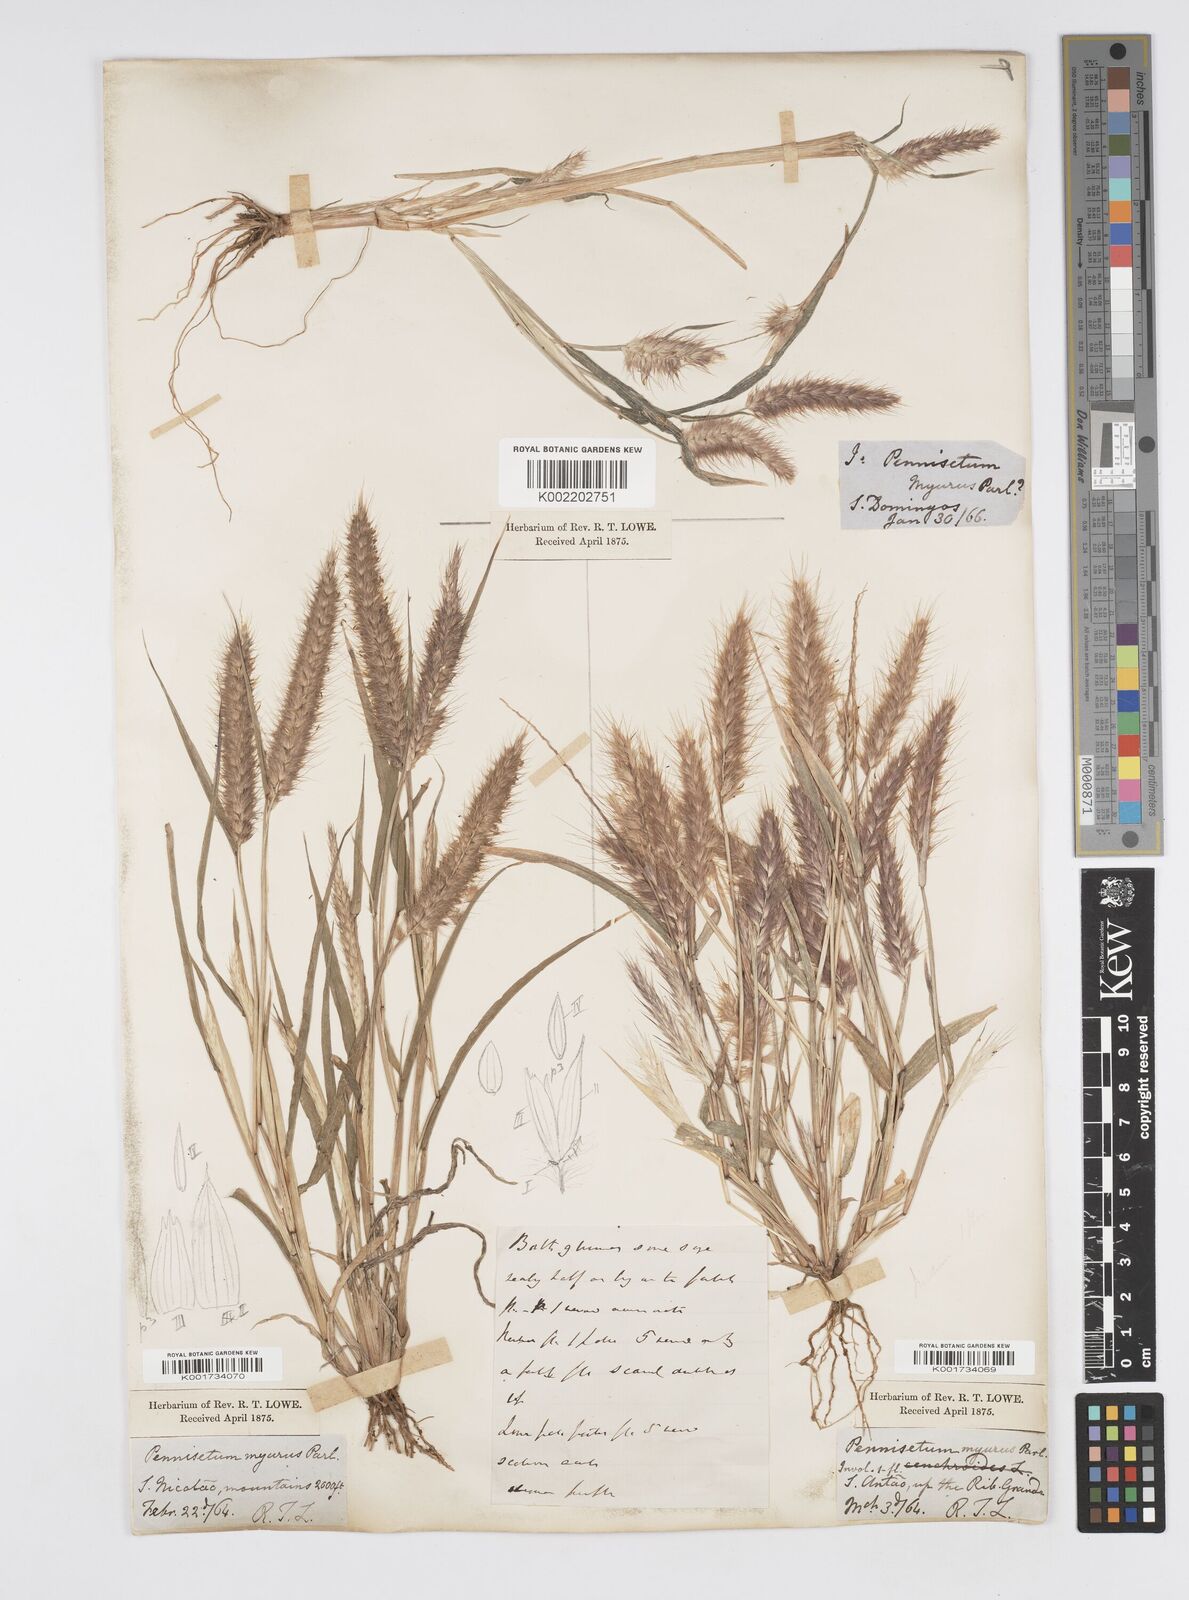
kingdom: Plantae
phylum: Tracheophyta
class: Liliopsida
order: Poales
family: Poaceae
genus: Cenchrus
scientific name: Cenchrus pedicellatus
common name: Hairy fountain grass
